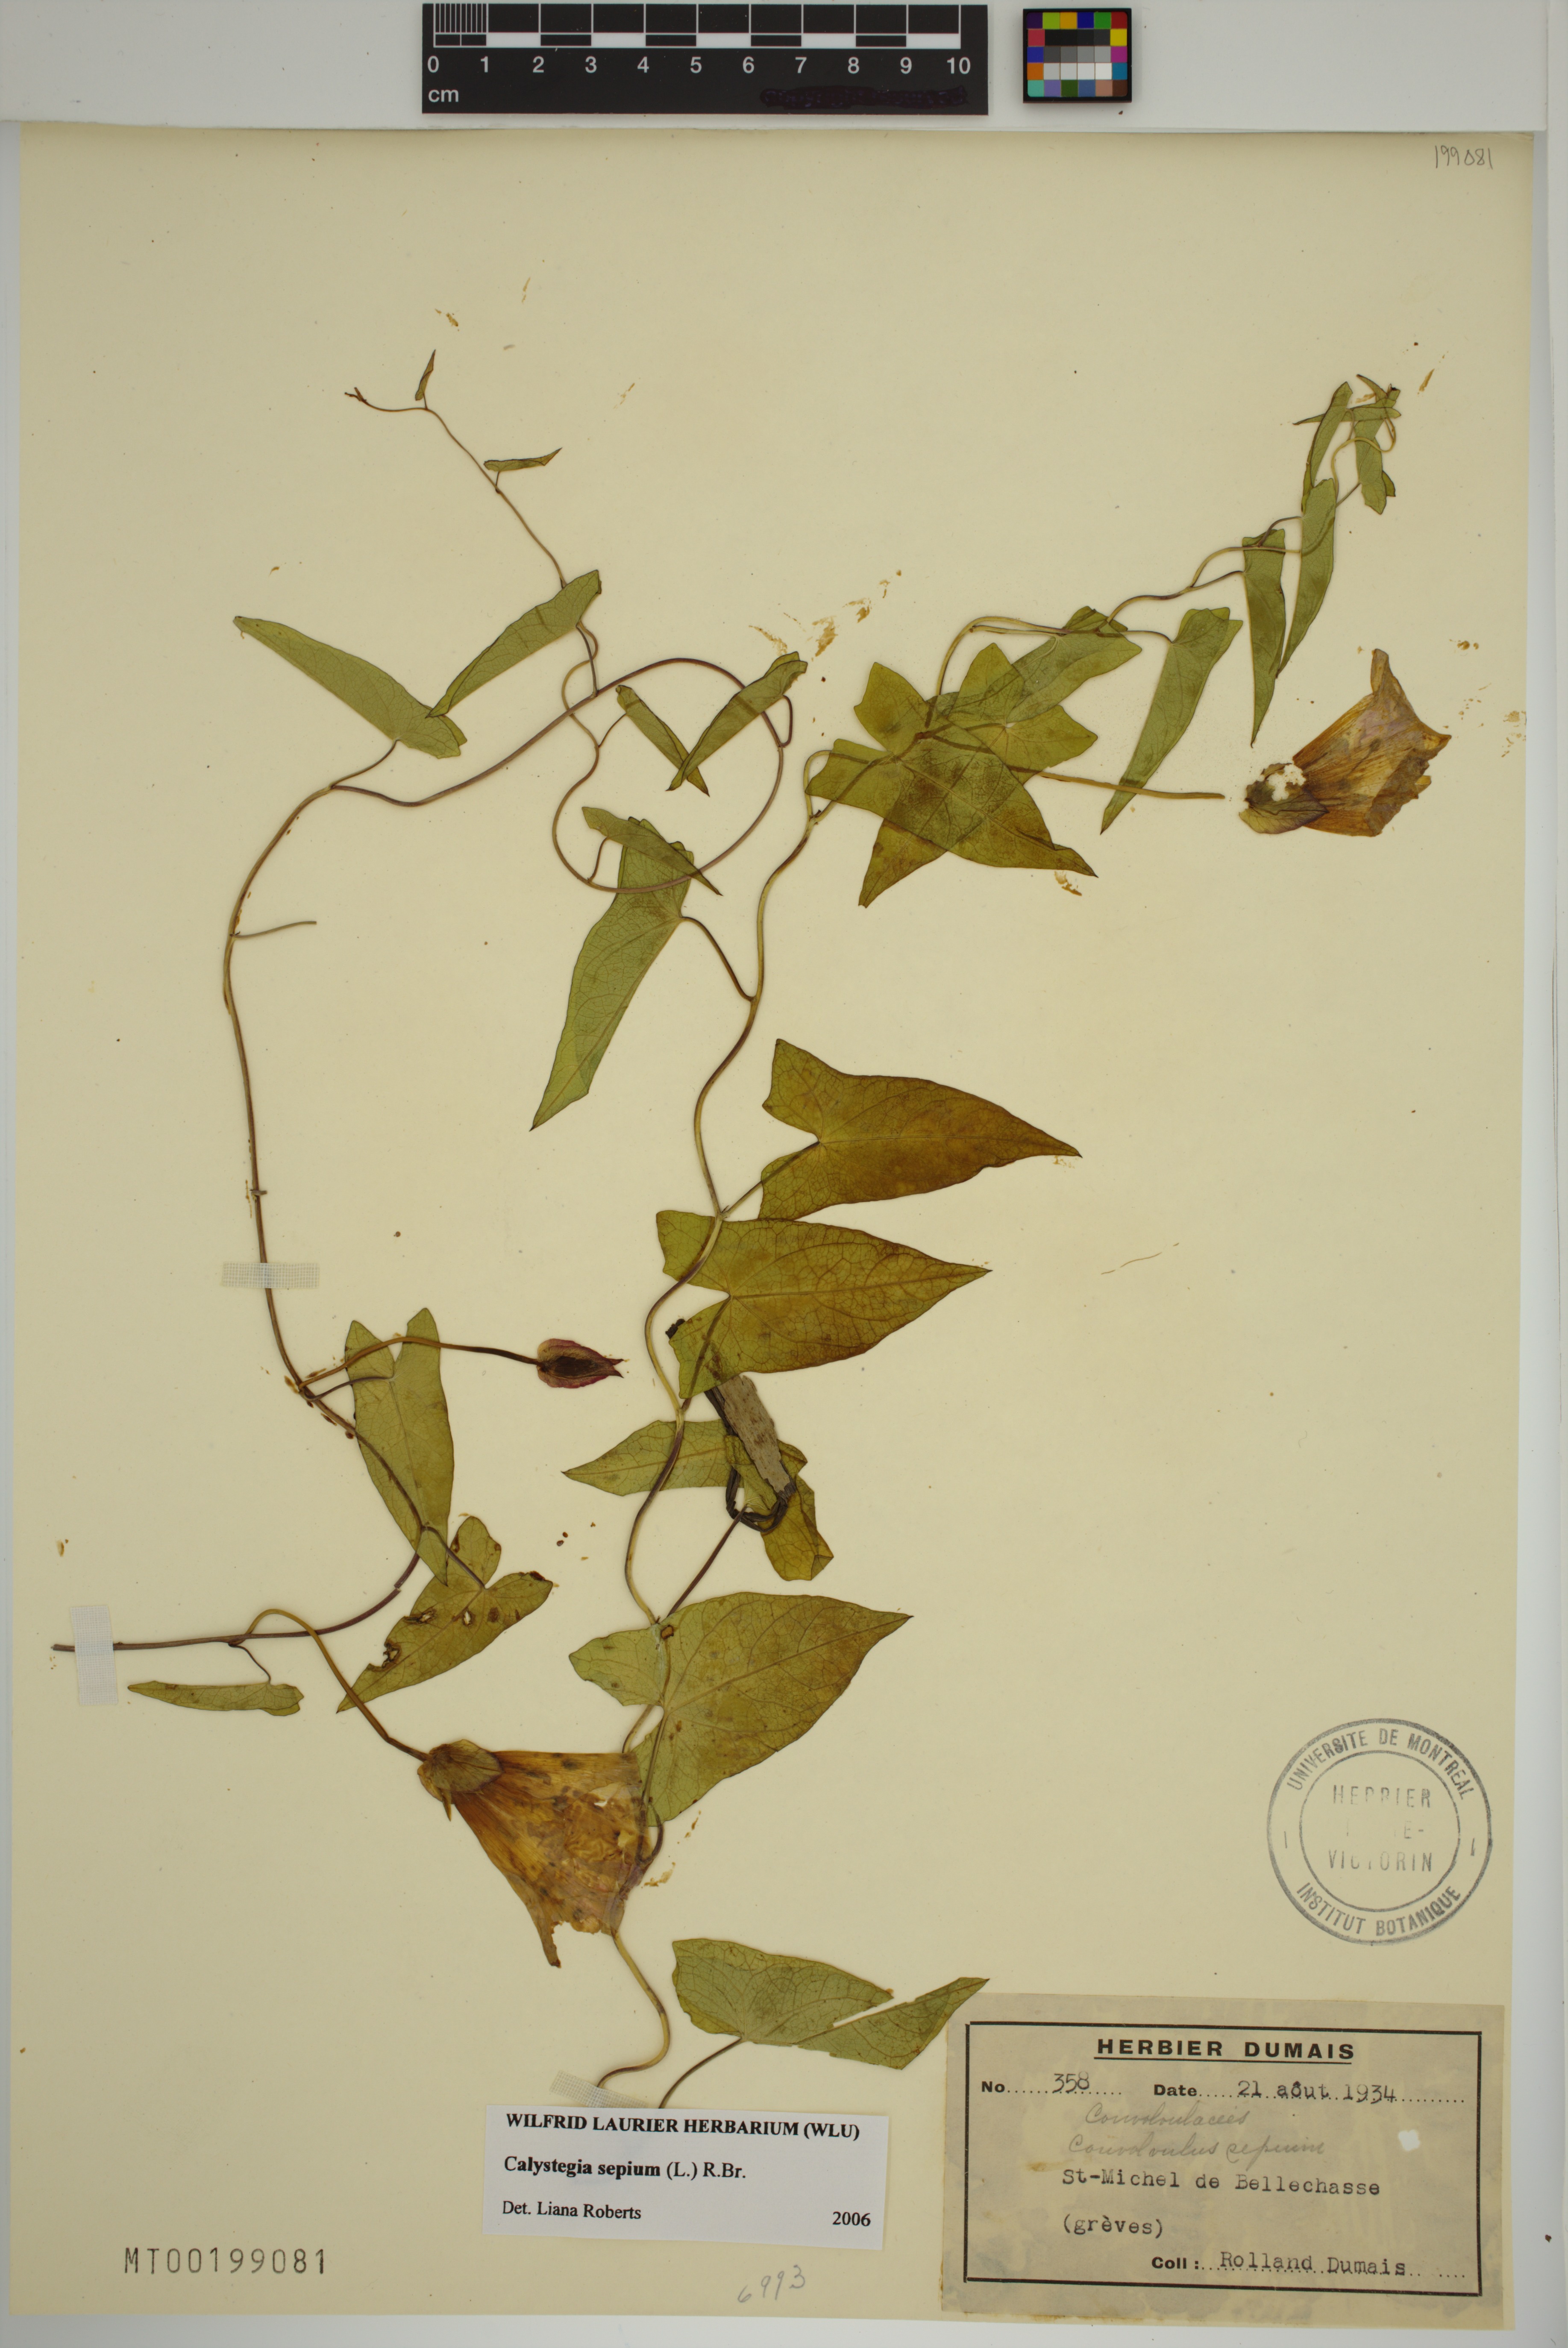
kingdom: Plantae
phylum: Tracheophyta
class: Magnoliopsida
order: Solanales
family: Convolvulaceae
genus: Calystegia
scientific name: Calystegia sepium
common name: Hedge bindweed
